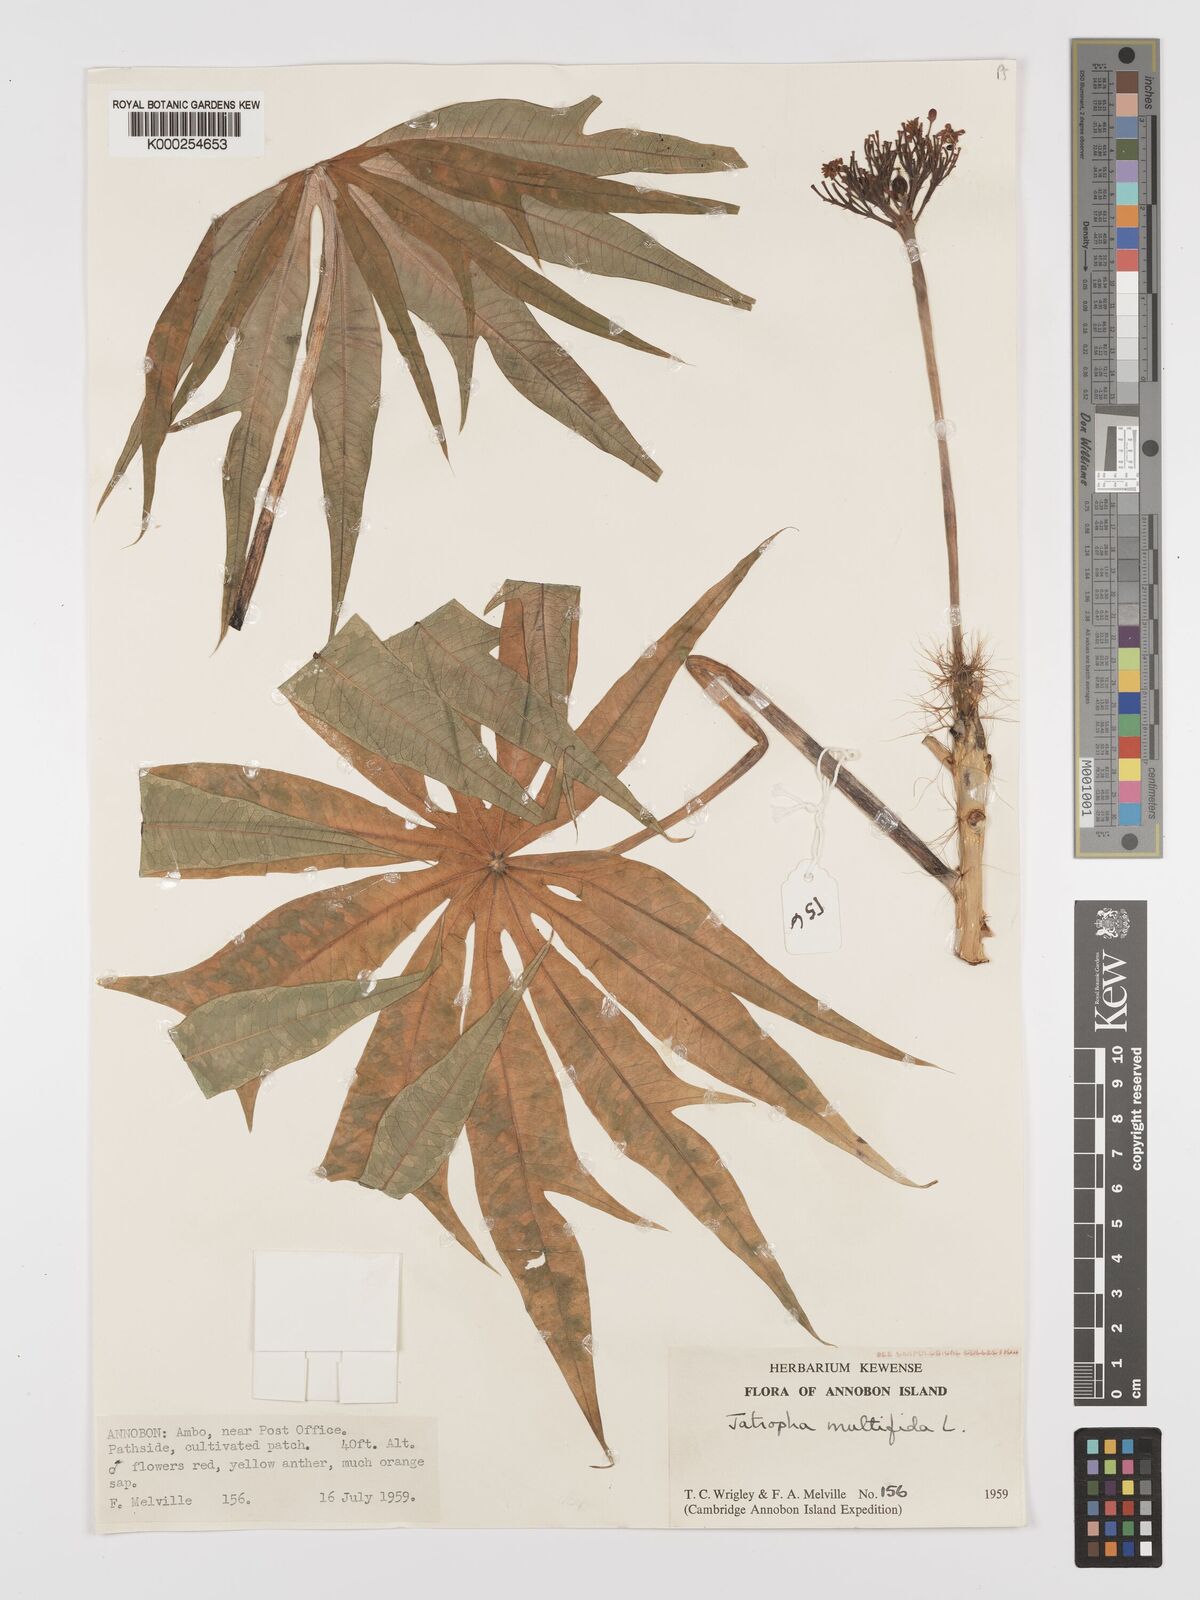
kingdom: Plantae
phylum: Tracheophyta
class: Magnoliopsida
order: Malpighiales
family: Euphorbiaceae
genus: Jatropha
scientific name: Jatropha multifida
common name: Coralbush
